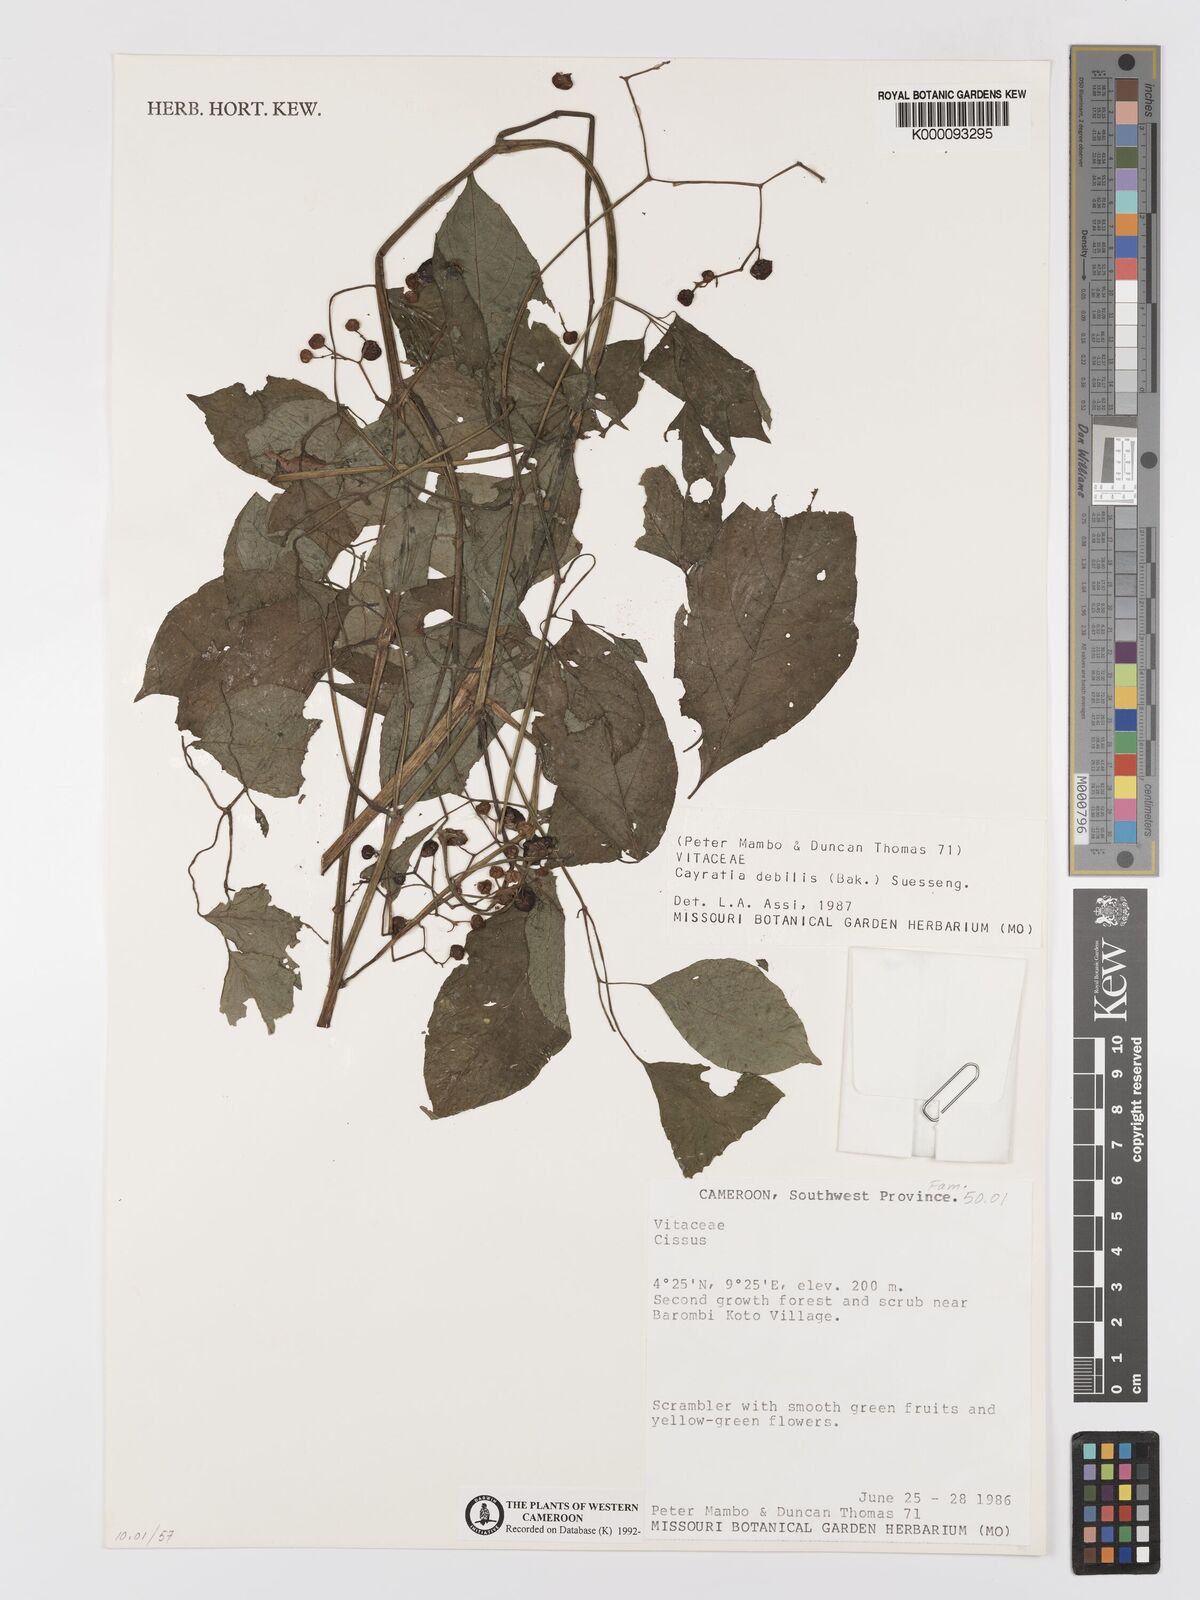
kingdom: Plantae
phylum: Tracheophyta
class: Magnoliopsida
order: Vitales
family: Vitaceae
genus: Afrocayratia
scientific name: Afrocayratia debilis
